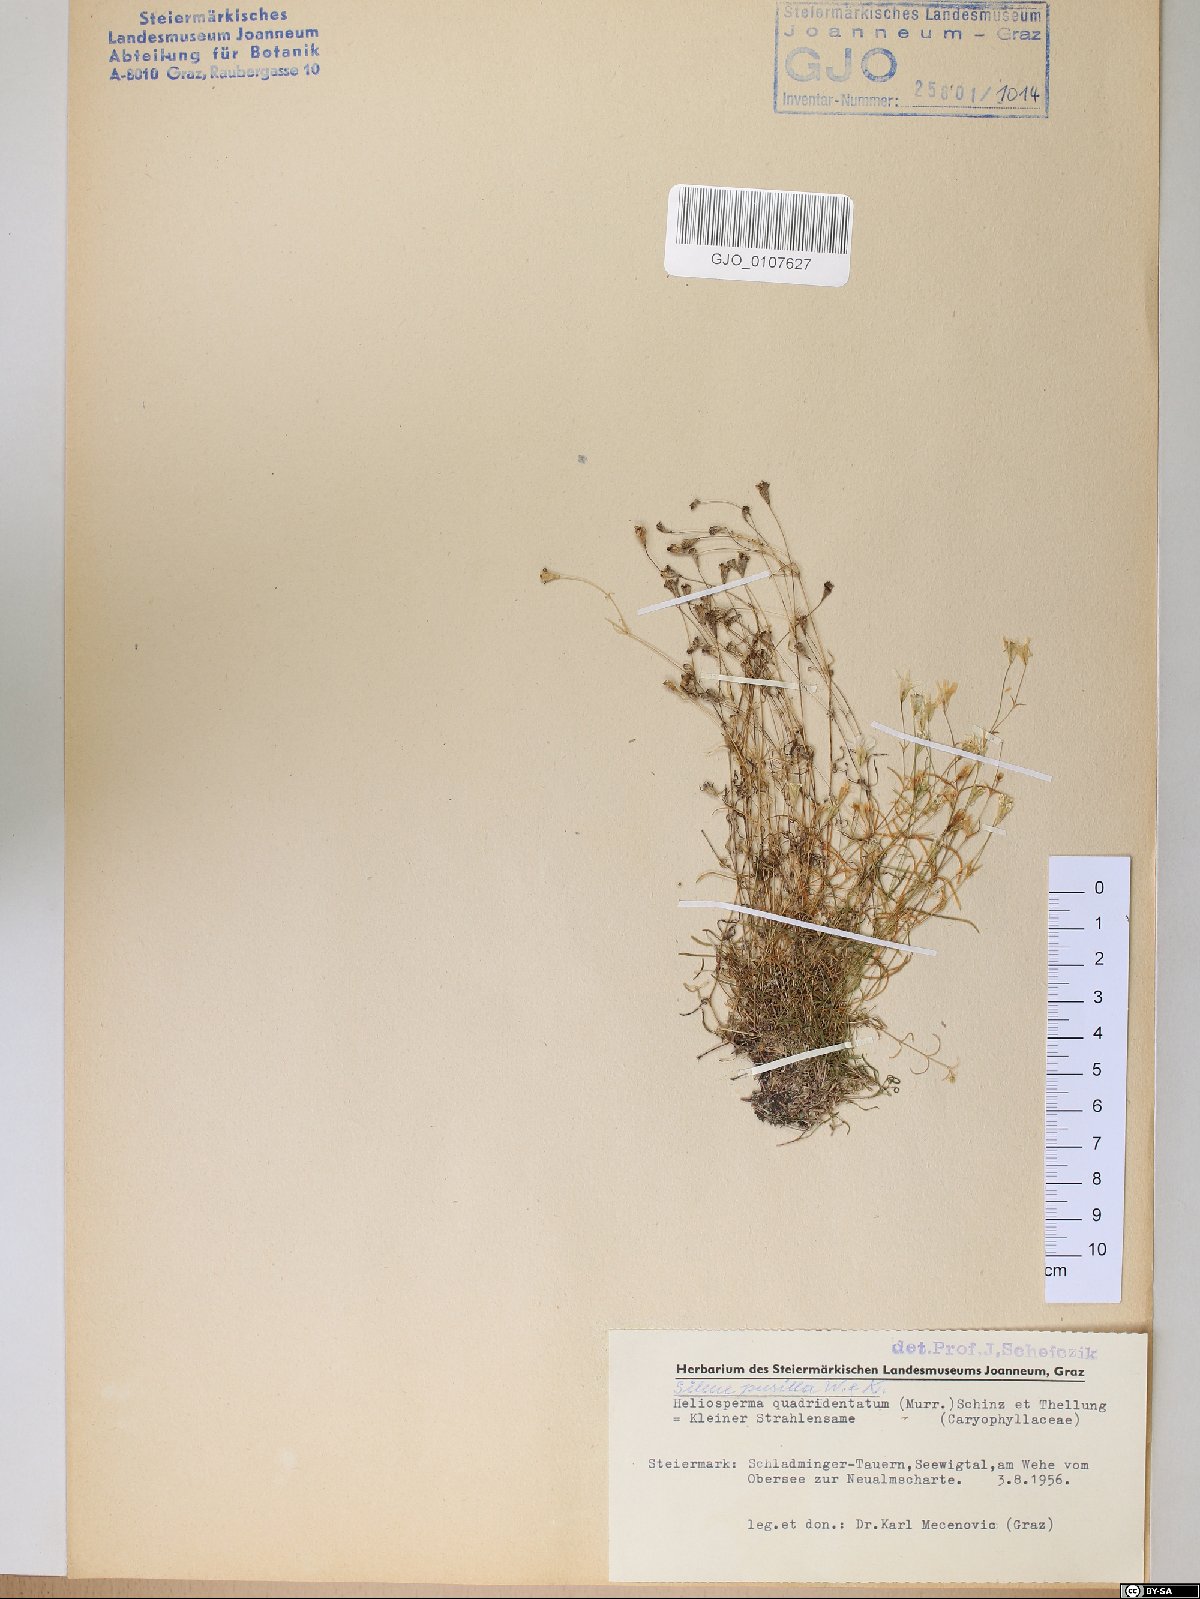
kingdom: Plantae
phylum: Tracheophyta
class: Magnoliopsida
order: Caryophyllales
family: Caryophyllaceae
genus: Heliosperma
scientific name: Heliosperma alpestre
